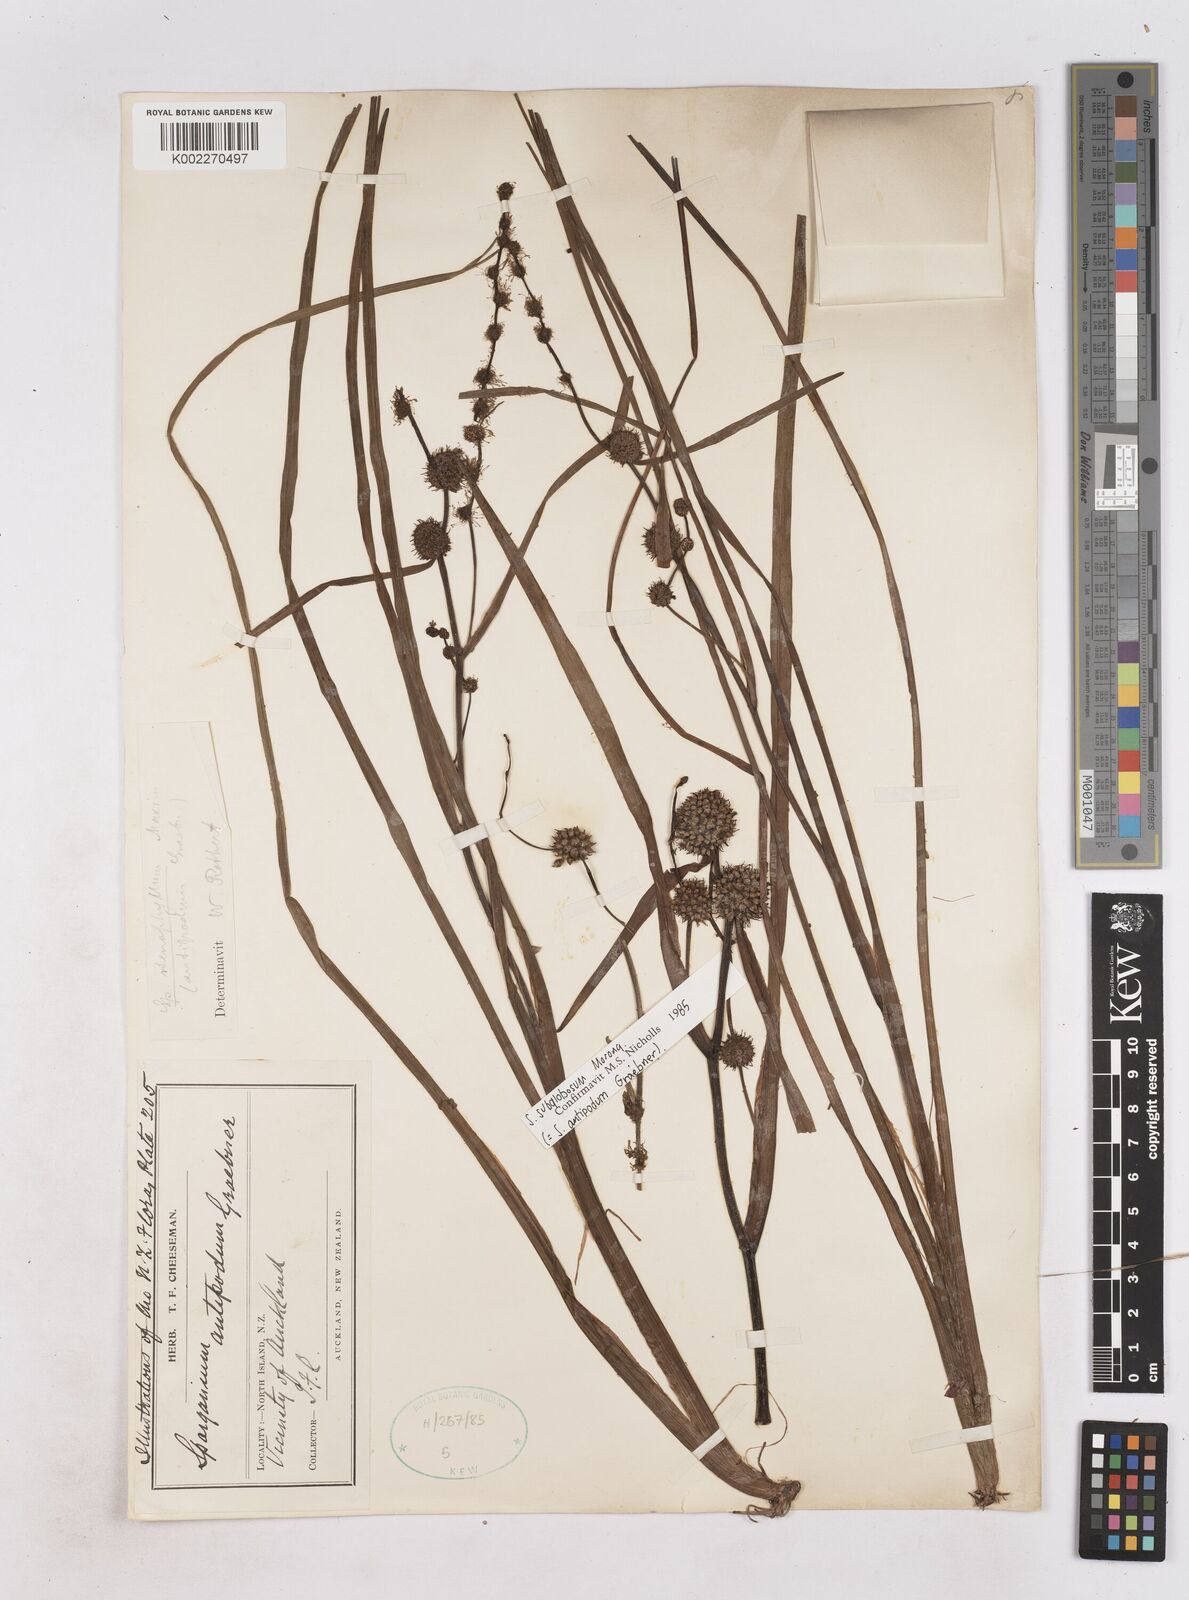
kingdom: Plantae
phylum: Tracheophyta
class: Liliopsida
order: Poales
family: Typhaceae
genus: Sparganium
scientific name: Sparganium subglobosum
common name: Burr­-reed
